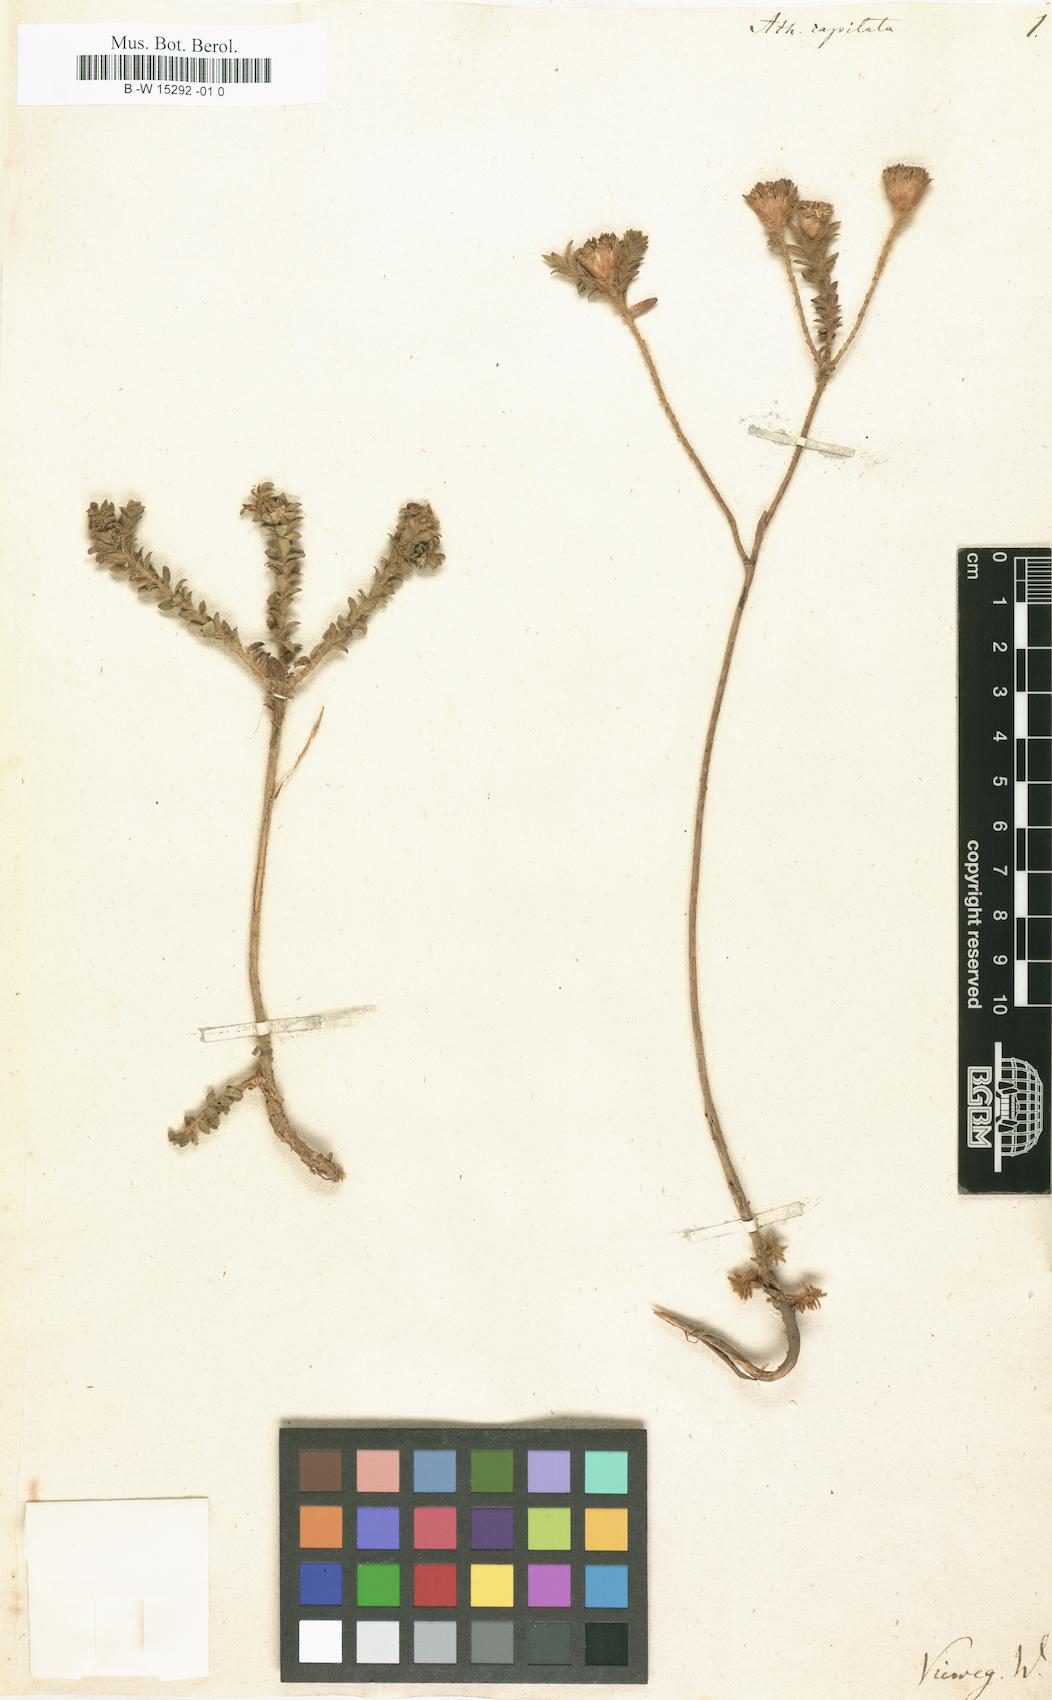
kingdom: Plantae
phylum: Tracheophyta
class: Magnoliopsida
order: Asterales
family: Asteraceae
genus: Athanasia
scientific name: Athanasia capitata
